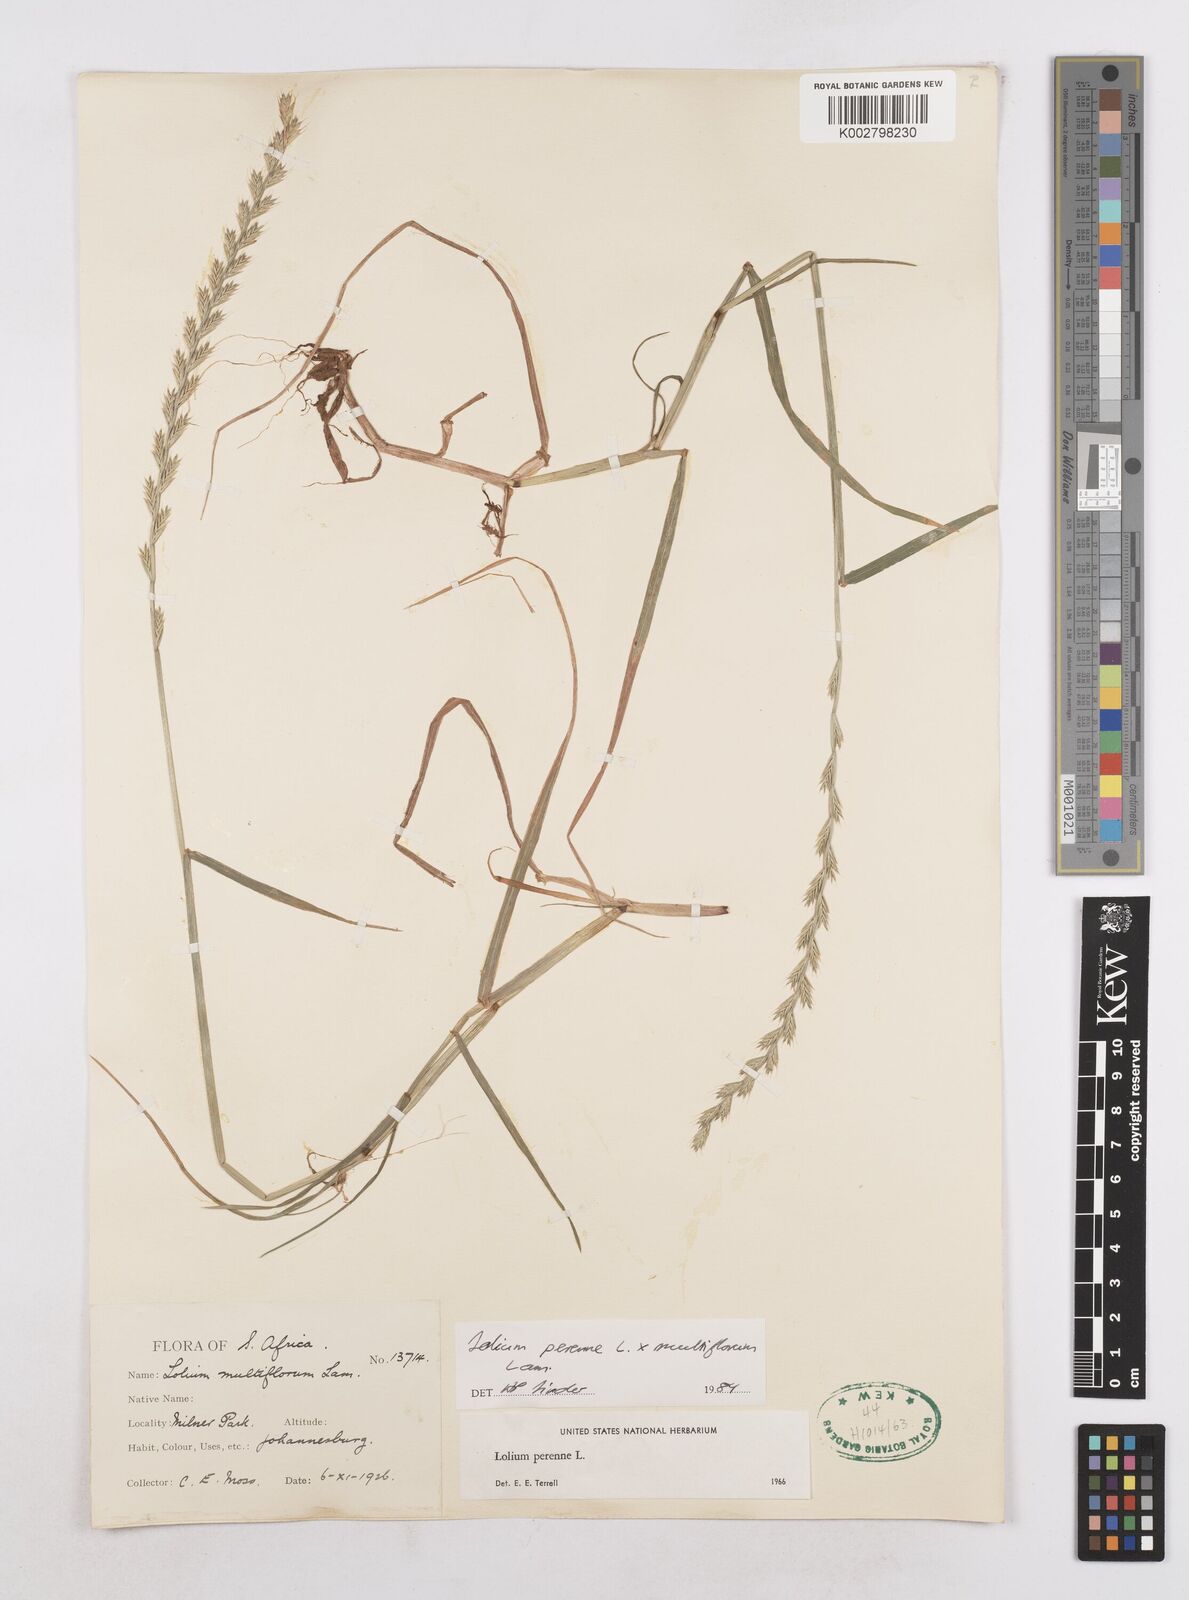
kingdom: Plantae
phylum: Tracheophyta
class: Liliopsida
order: Poales
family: Poaceae
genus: Lolium
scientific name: Lolium multiflorum
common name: Annual ryegrass
